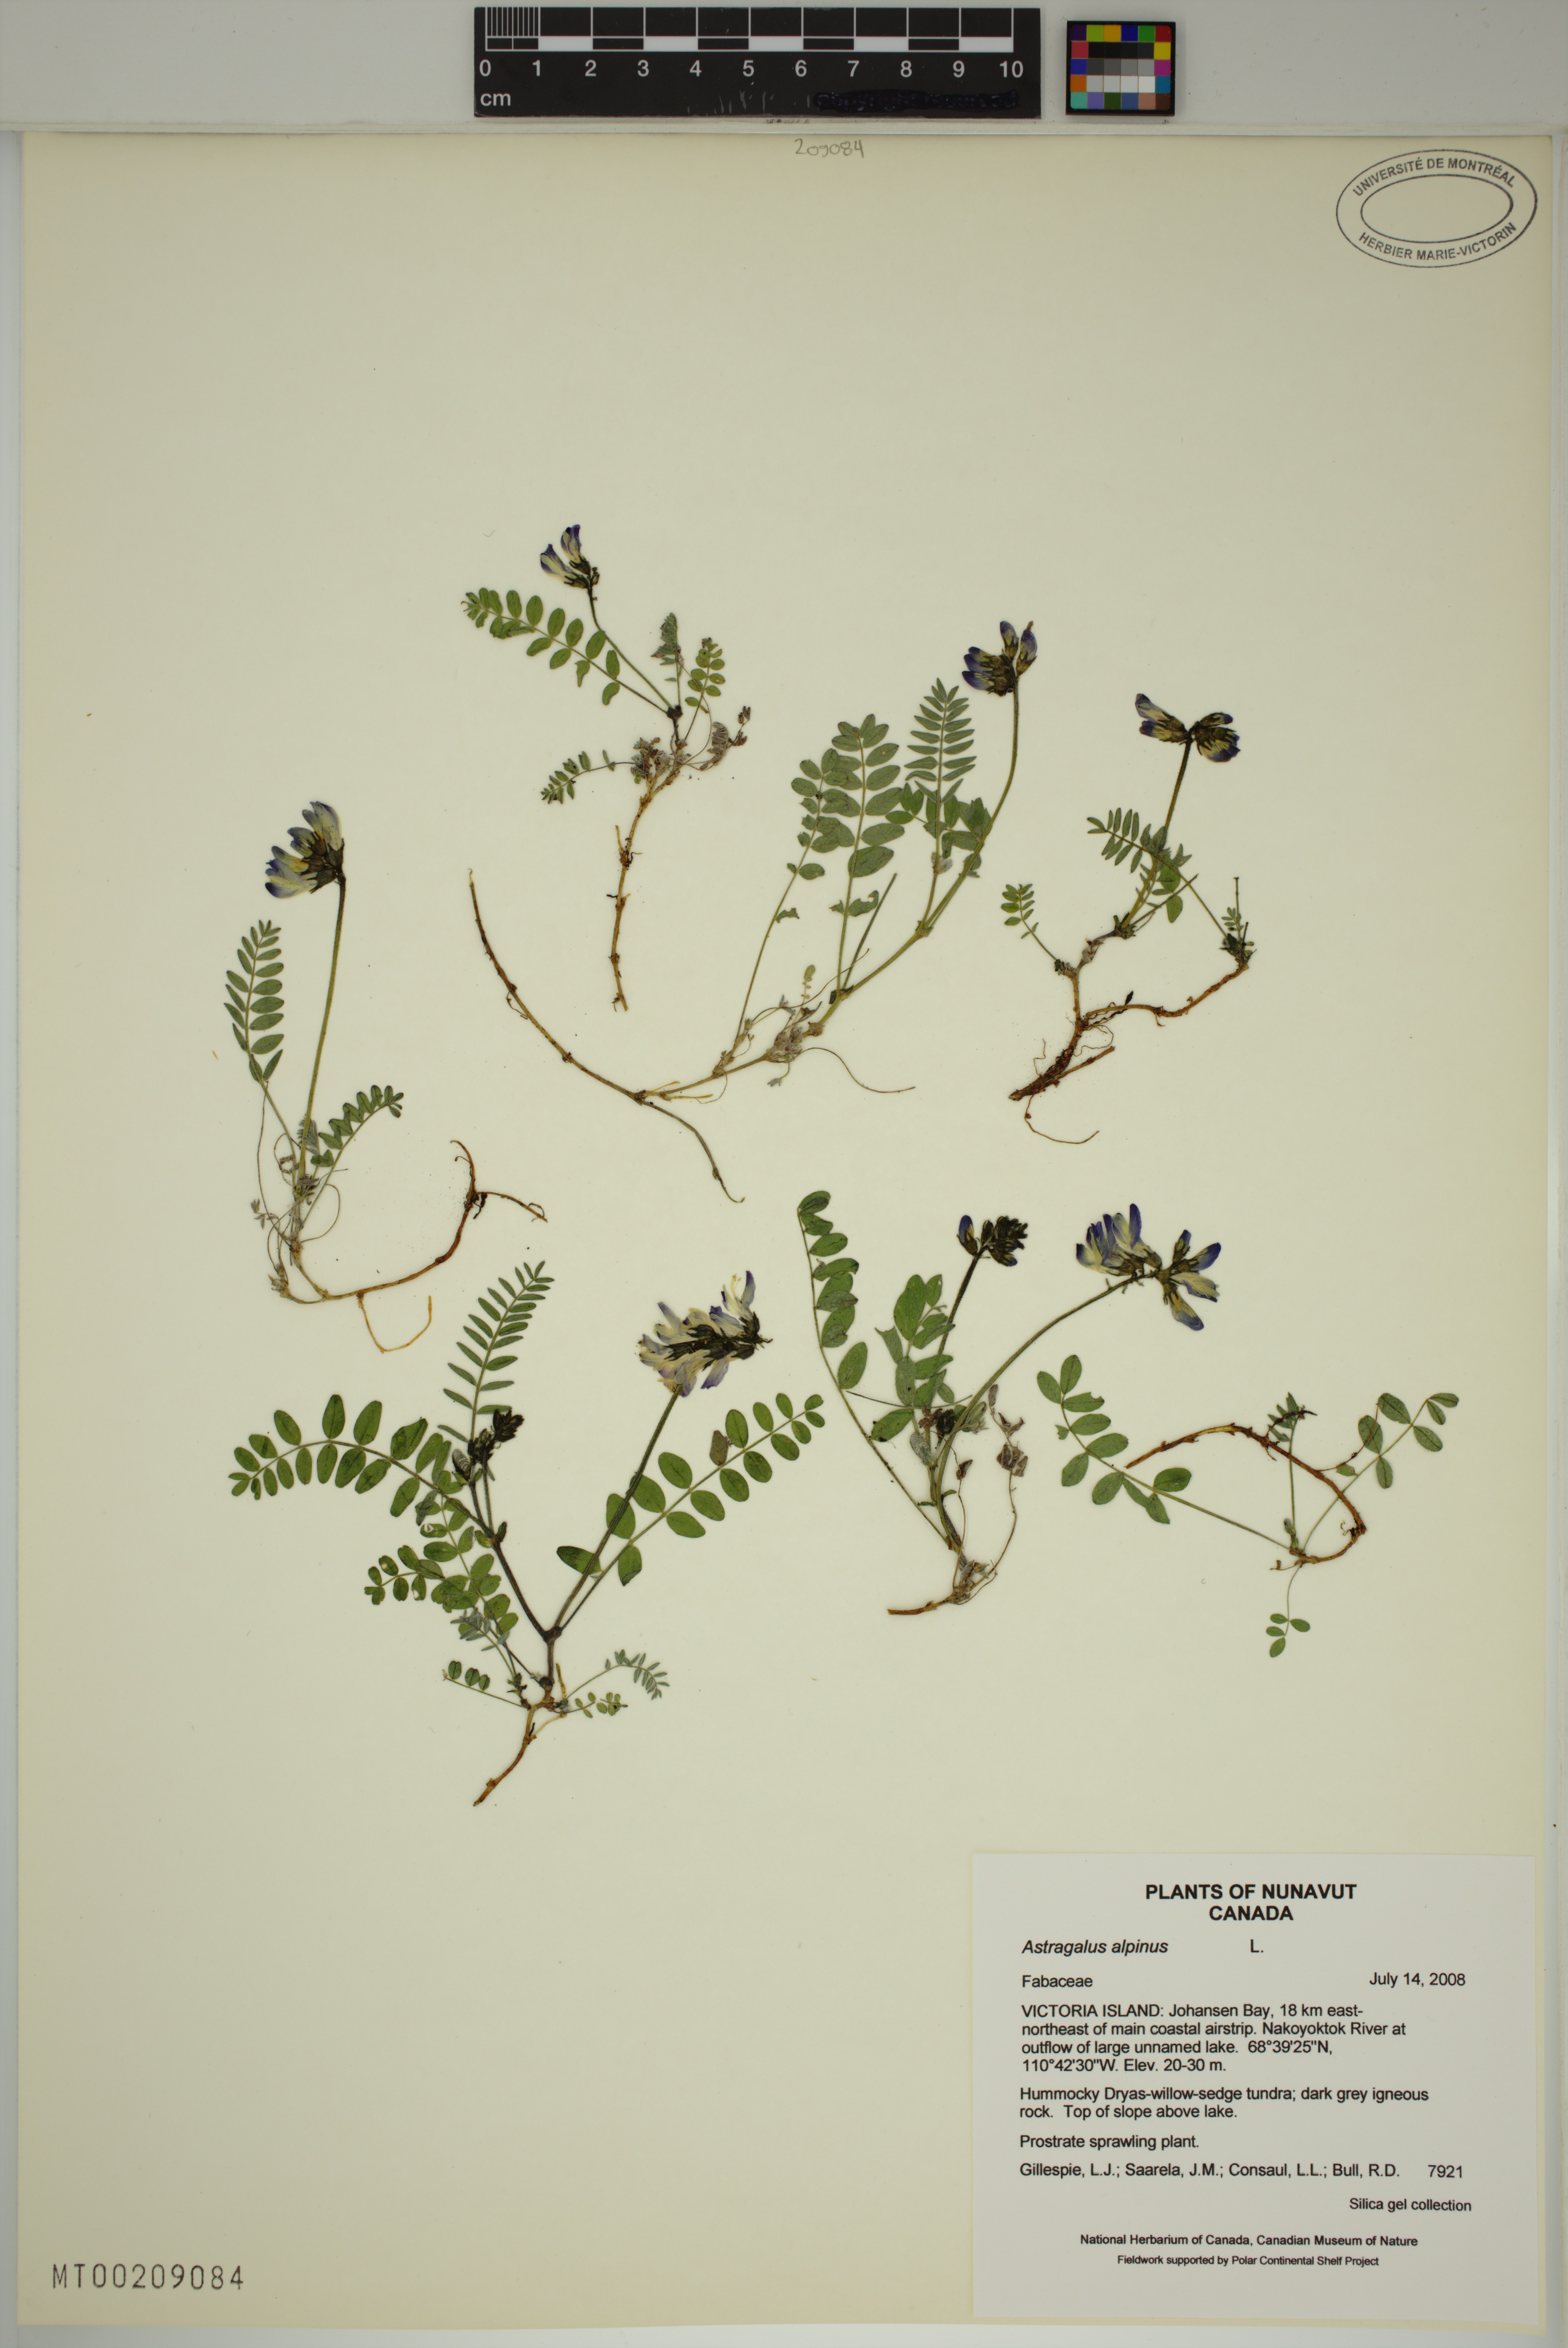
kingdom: Plantae
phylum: Tracheophyta
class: Magnoliopsida
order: Fabales
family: Fabaceae
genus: Astragalus
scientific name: Astragalus alpinus
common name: Alpine milk-vetch
